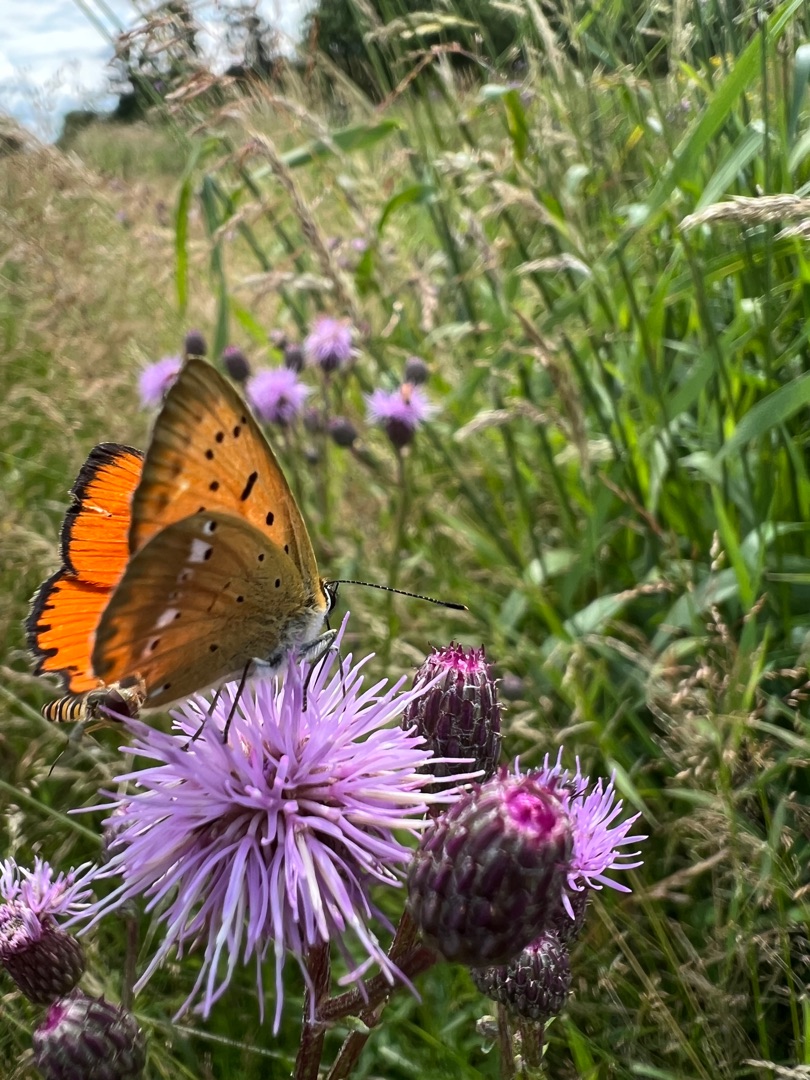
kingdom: Animalia
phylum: Arthropoda
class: Insecta
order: Lepidoptera
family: Lycaenidae
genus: Lycaena
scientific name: Lycaena virgaureae
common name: Dukatsommerfugl
